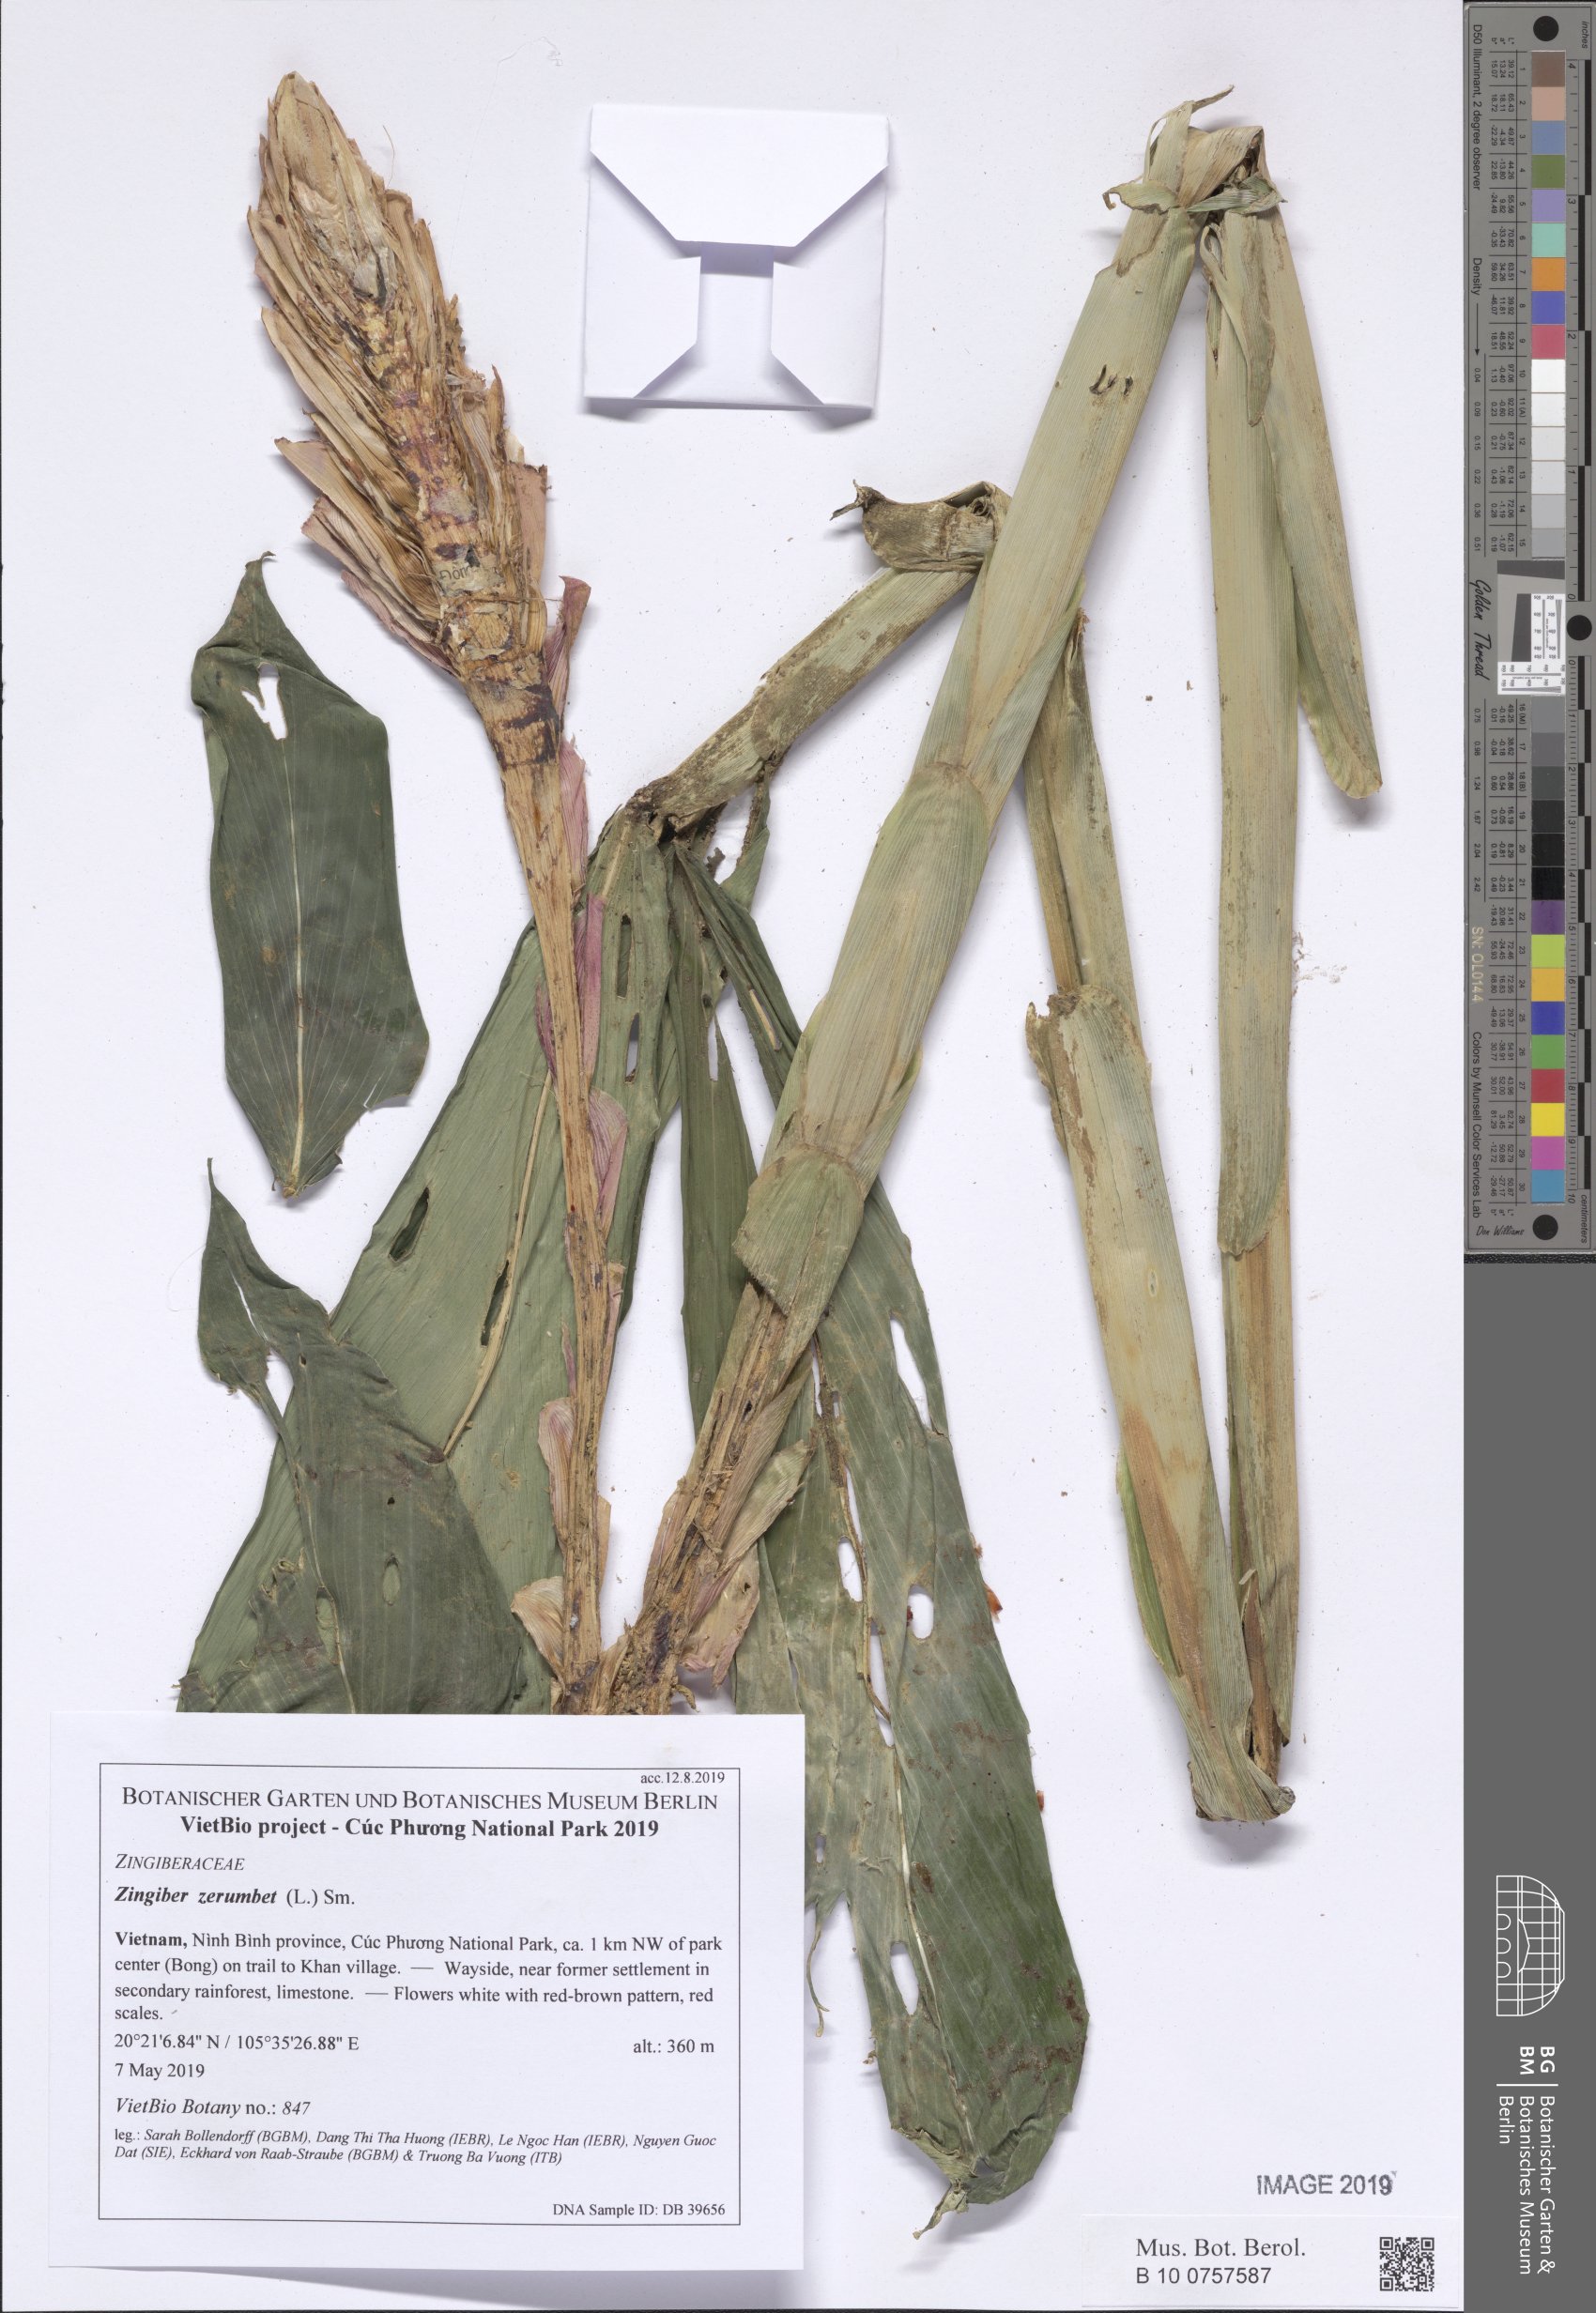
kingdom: Plantae
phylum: Tracheophyta
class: Liliopsida
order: Zingiberales
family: Zingiberaceae
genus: Zingiber
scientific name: Zingiber zerumbet
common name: Bitter ginger
